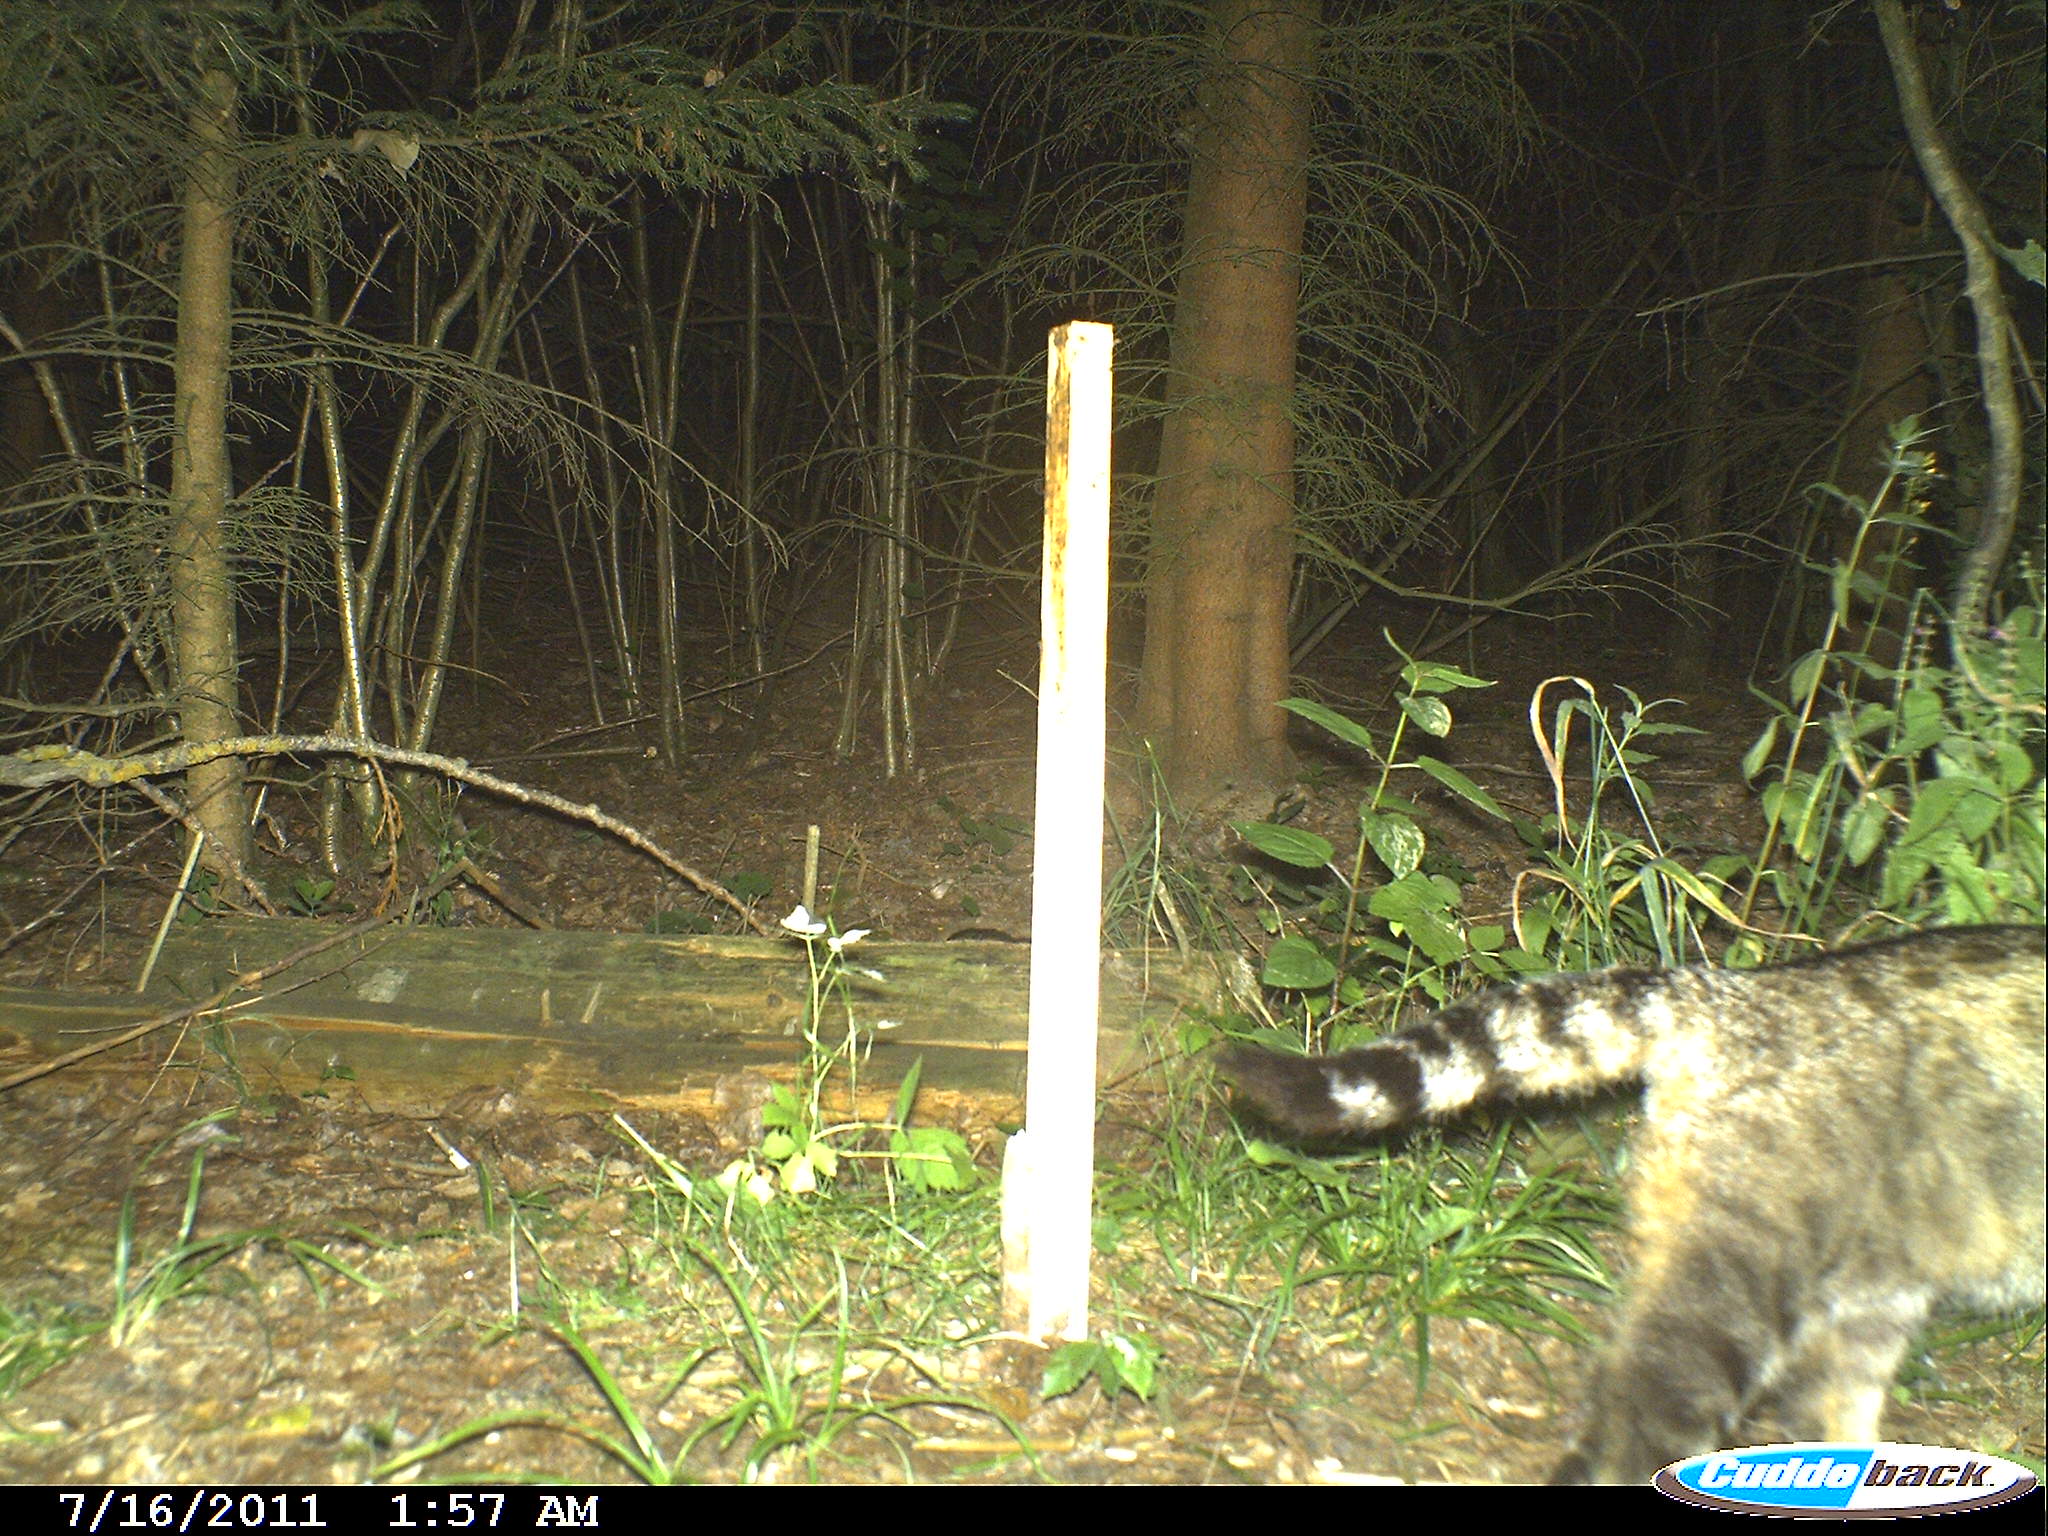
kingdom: Animalia
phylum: Chordata
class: Mammalia
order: Carnivora
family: Felidae
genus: Felis
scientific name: Felis silvestris
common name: Wildcat
